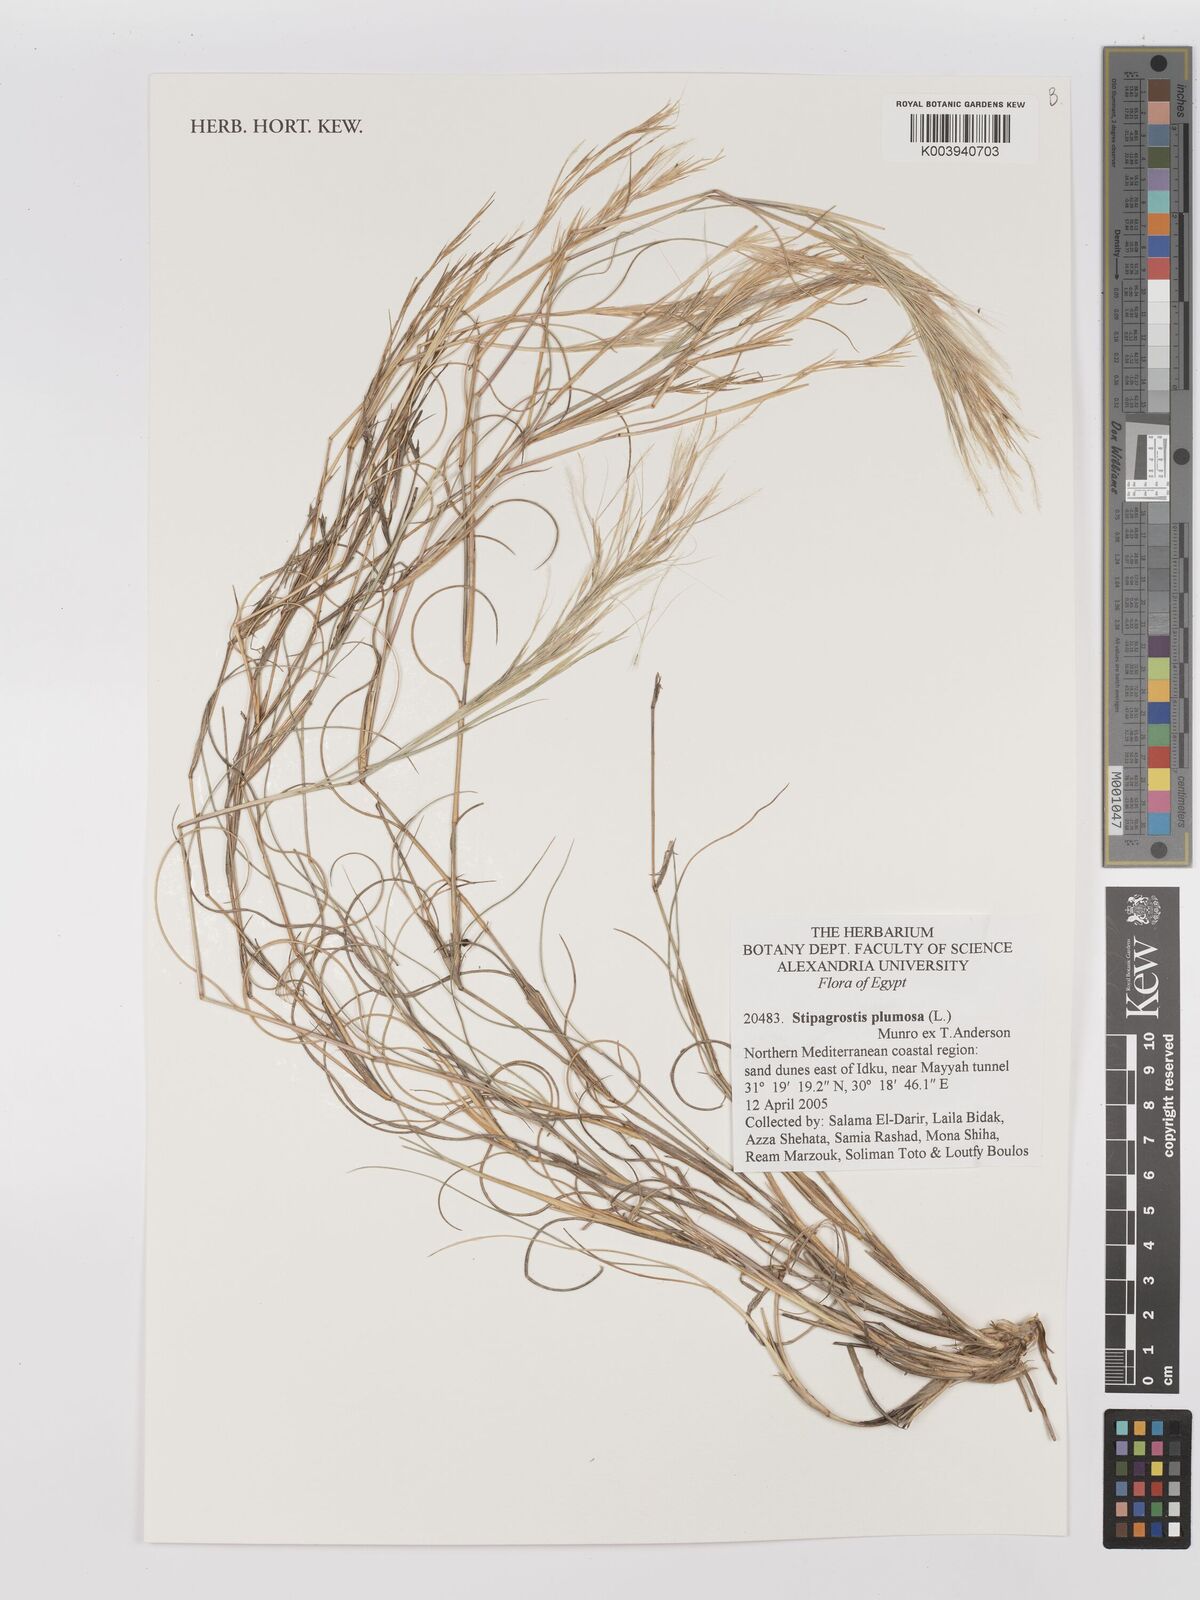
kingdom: Plantae
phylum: Tracheophyta
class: Liliopsida
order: Poales
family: Poaceae
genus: Stipagrostis
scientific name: Stipagrostis plumosa
